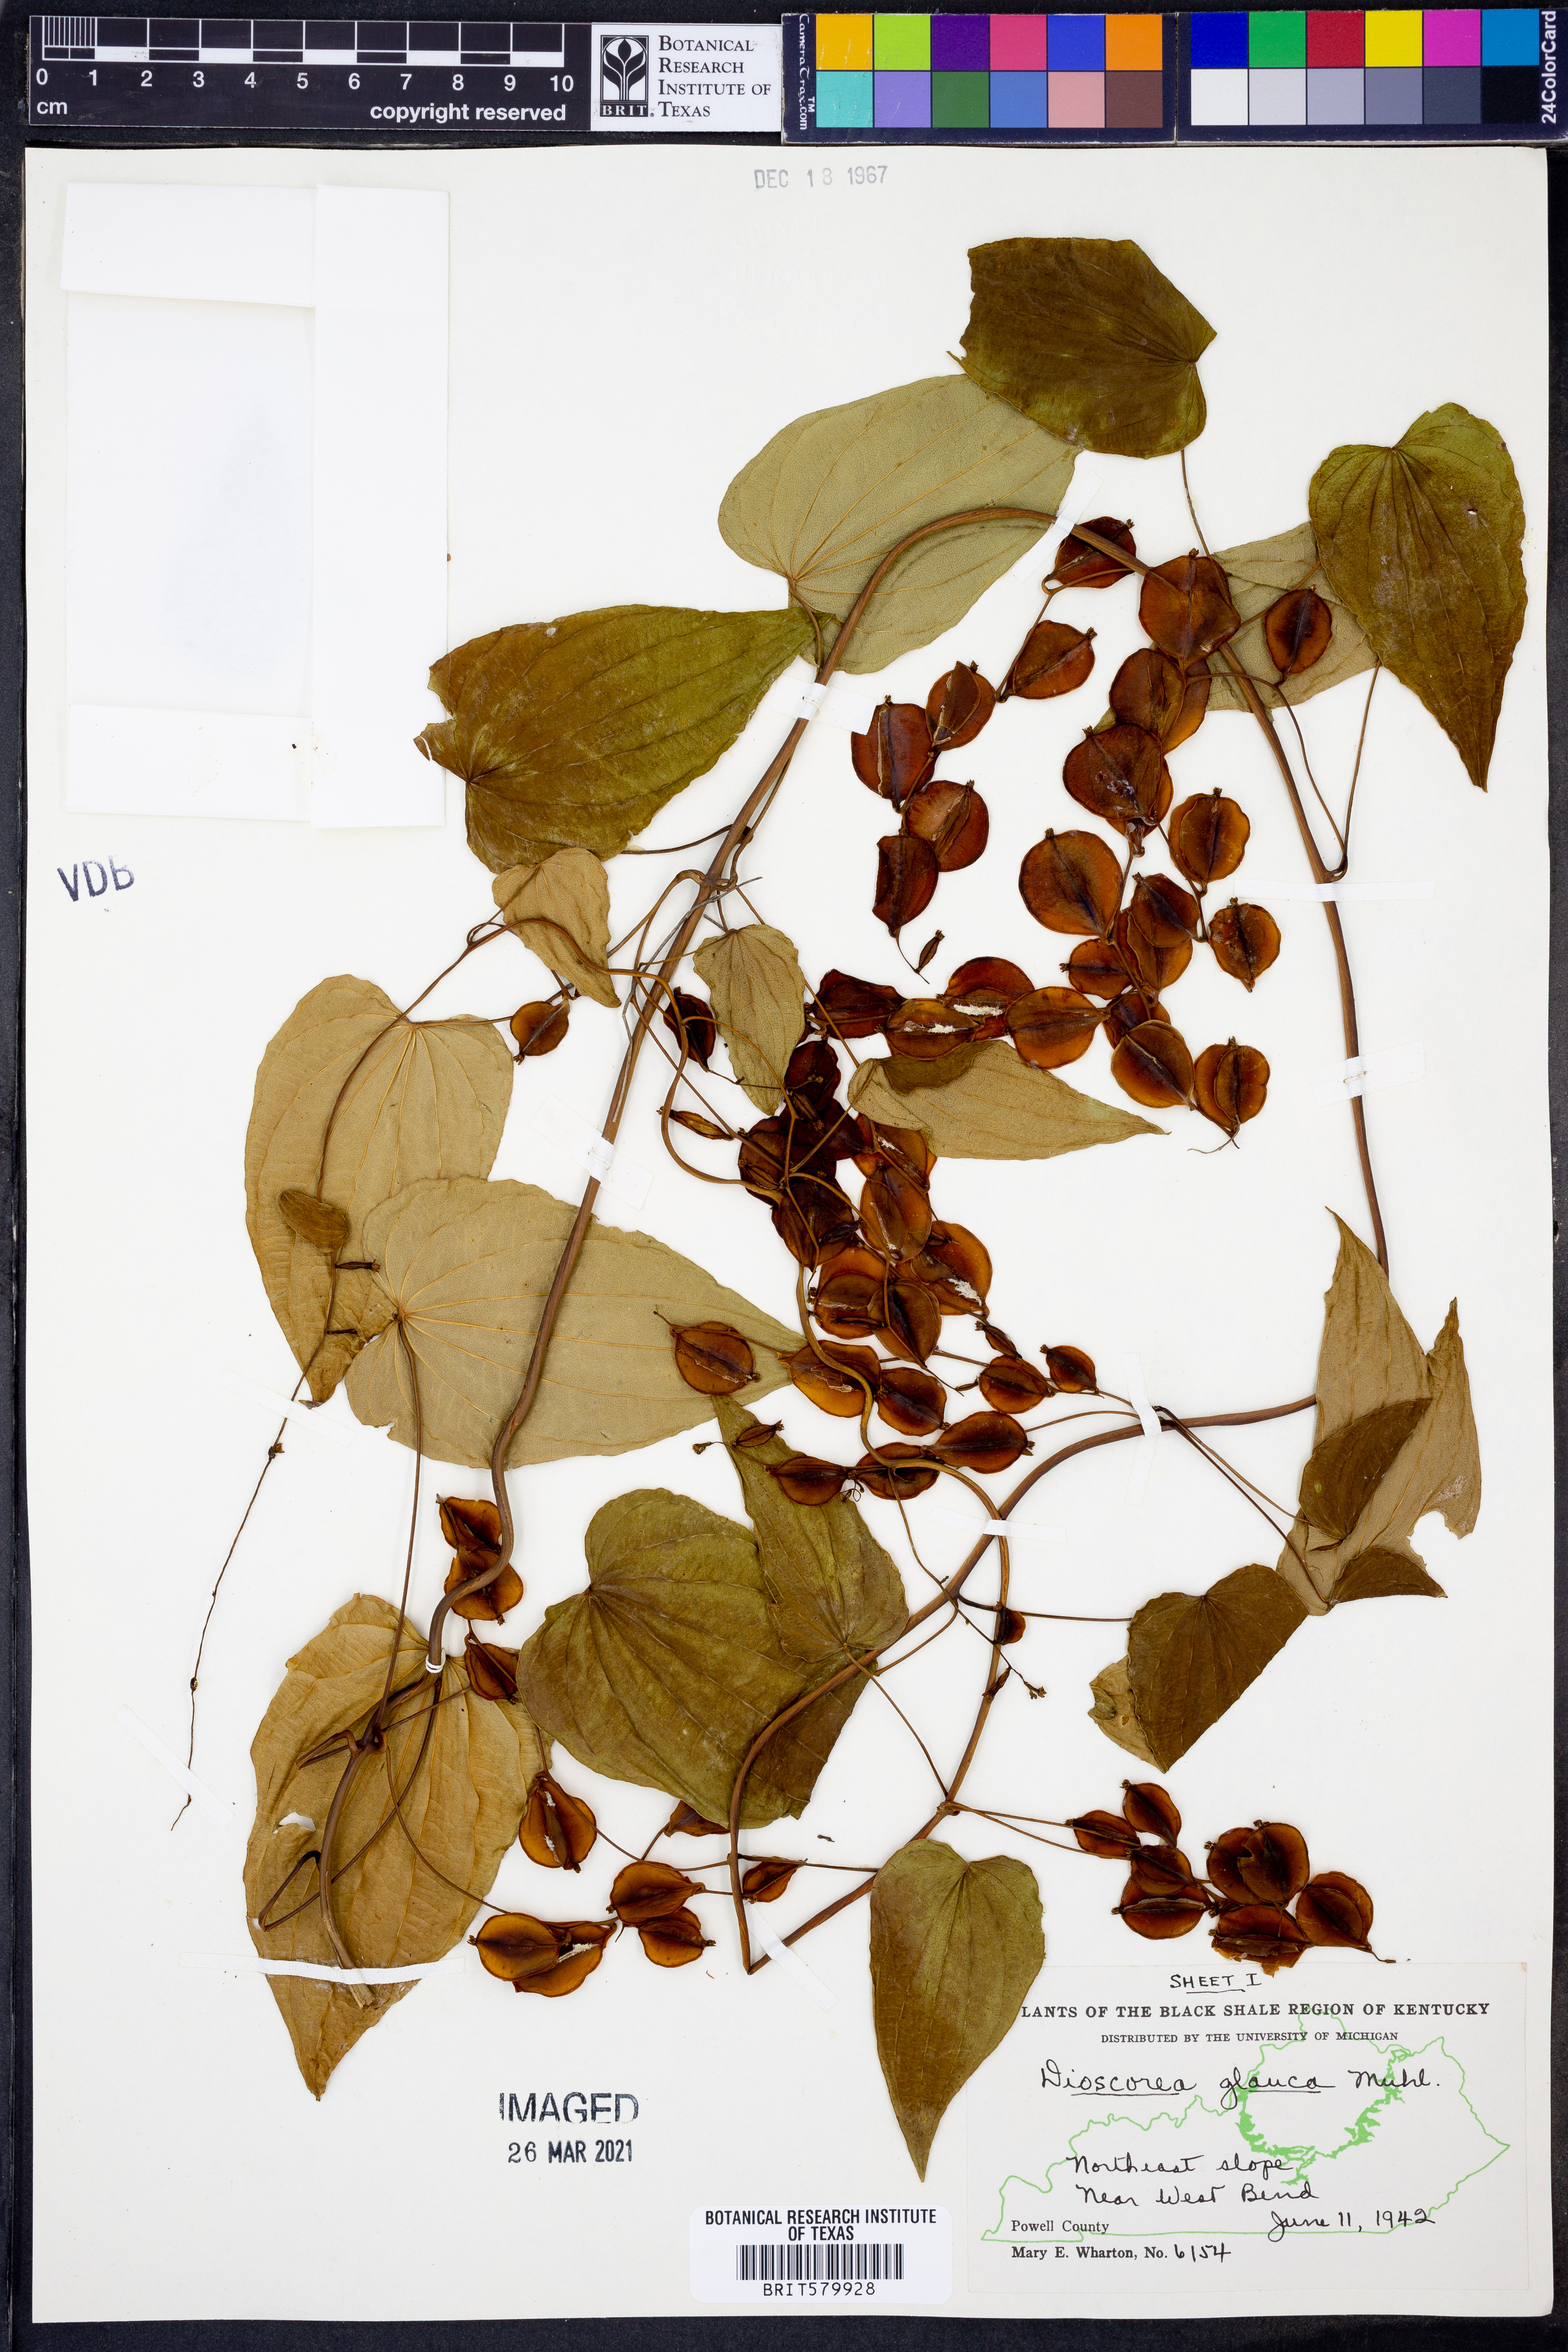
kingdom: Plantae
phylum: Tracheophyta
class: Liliopsida
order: Dioscoreales
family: Dioscoreaceae
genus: Dioscorea
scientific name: Dioscorea villosa
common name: Wild yam
